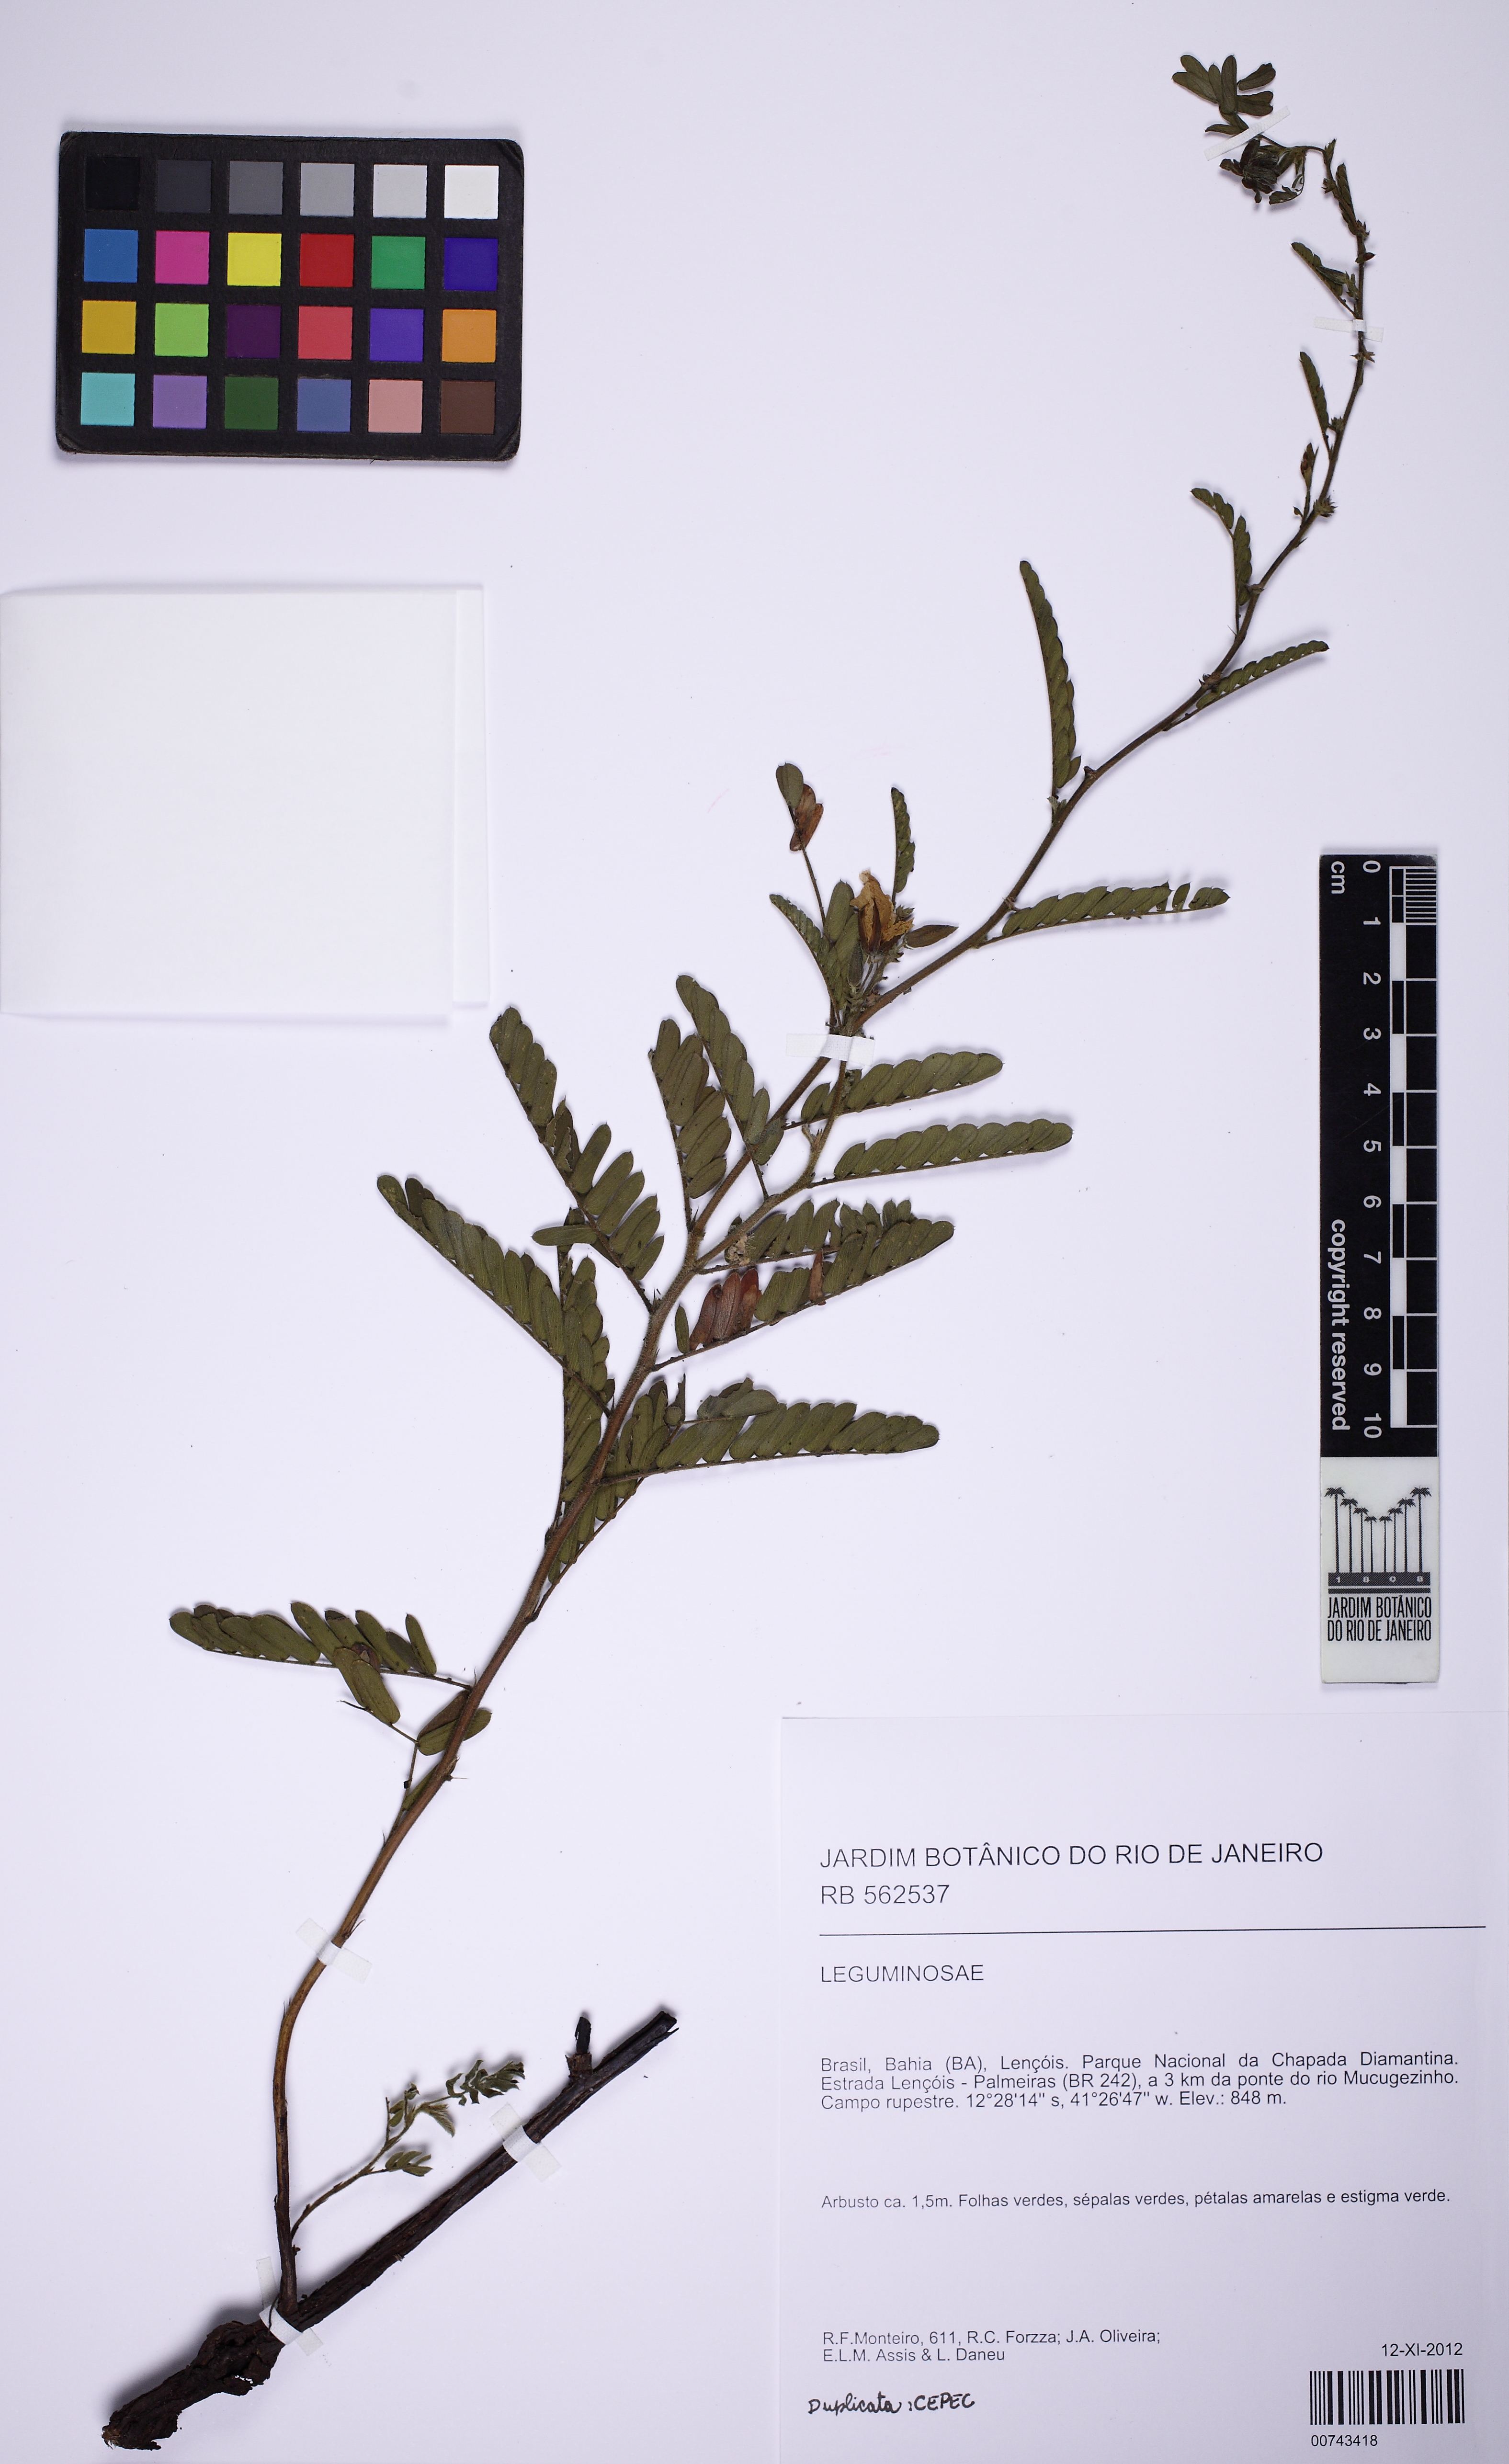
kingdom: Plantae
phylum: Tracheophyta
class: Magnoliopsida
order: Fabales
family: Fabaceae
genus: Chamaecrista
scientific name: Chamaecrista
